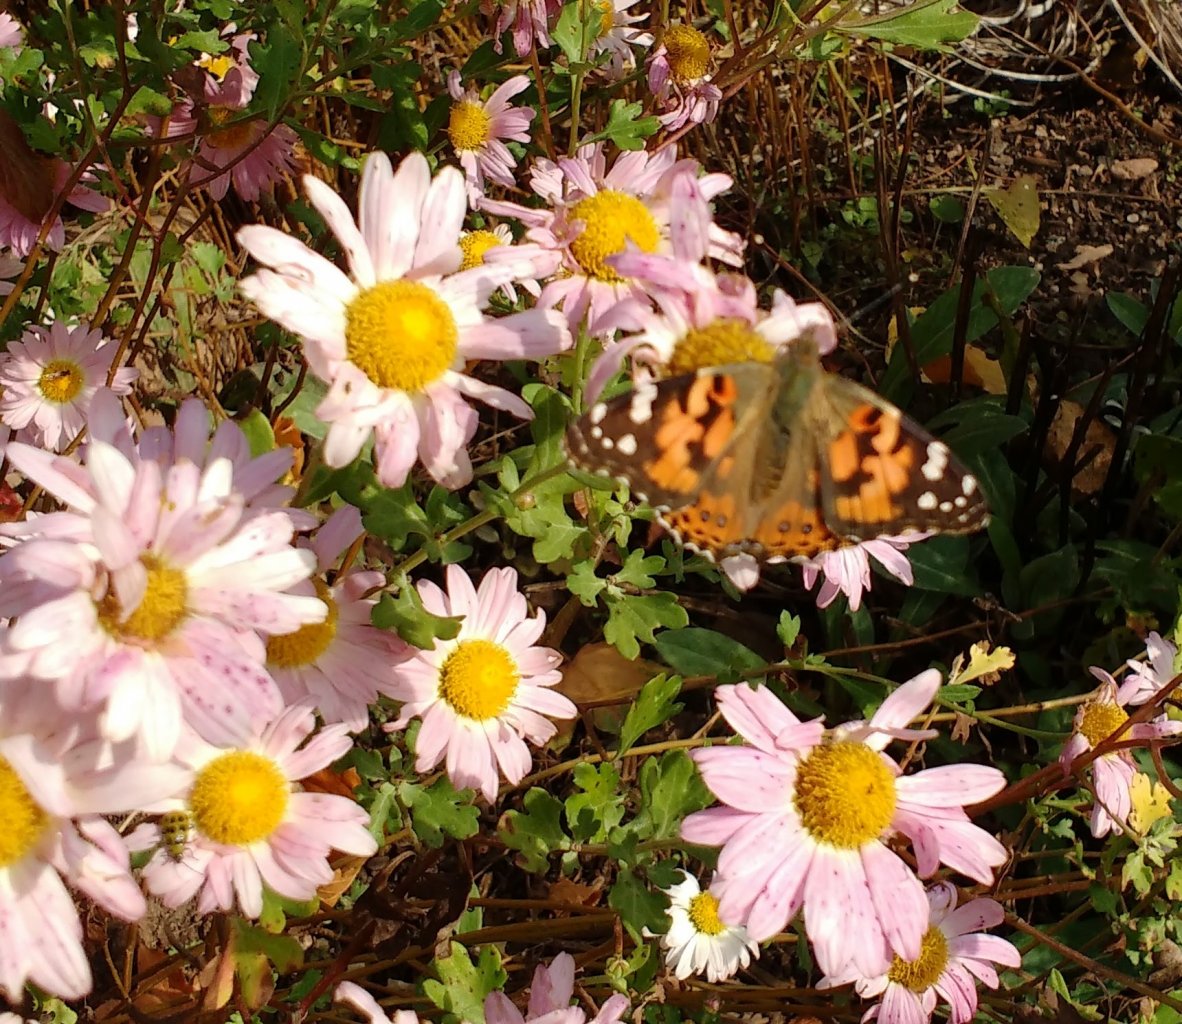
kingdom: Animalia
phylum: Arthropoda
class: Insecta
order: Lepidoptera
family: Nymphalidae
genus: Vanessa
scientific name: Vanessa cardui
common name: Painted Lady
